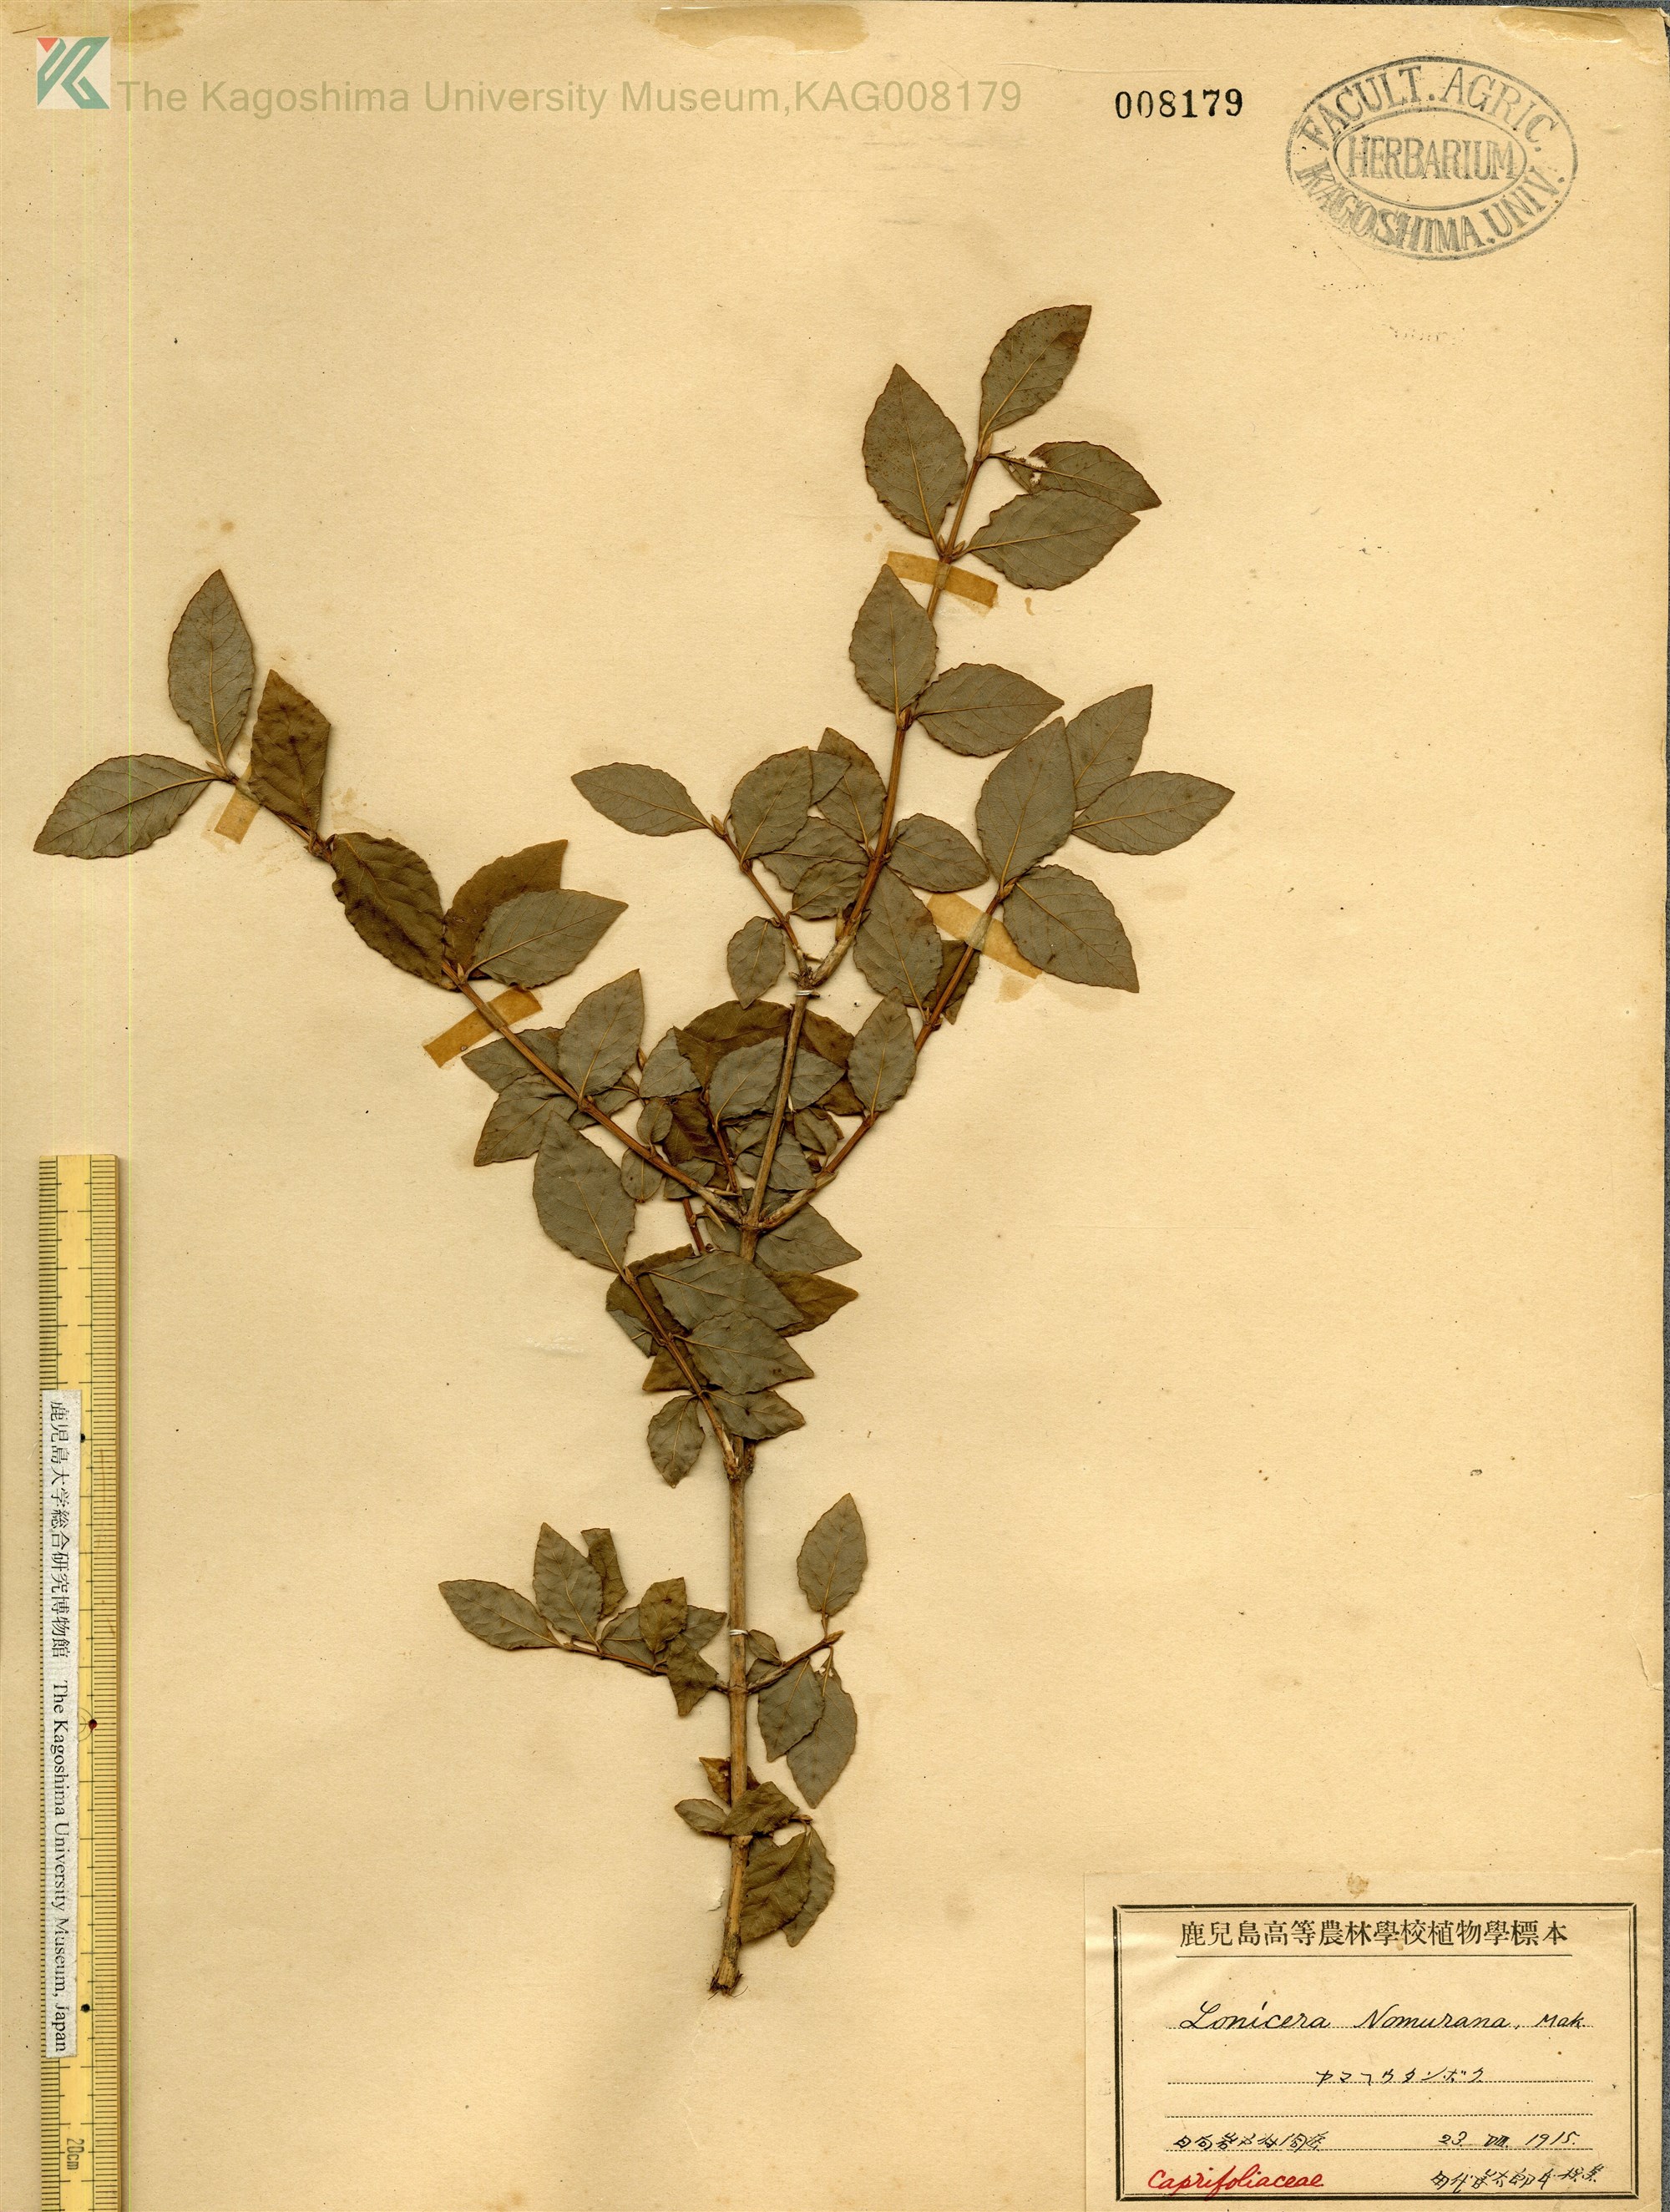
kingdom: Plantae
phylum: Tracheophyta
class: Magnoliopsida
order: Dipsacales
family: Caprifoliaceae
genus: Lonicera
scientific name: Lonicera subhispida
